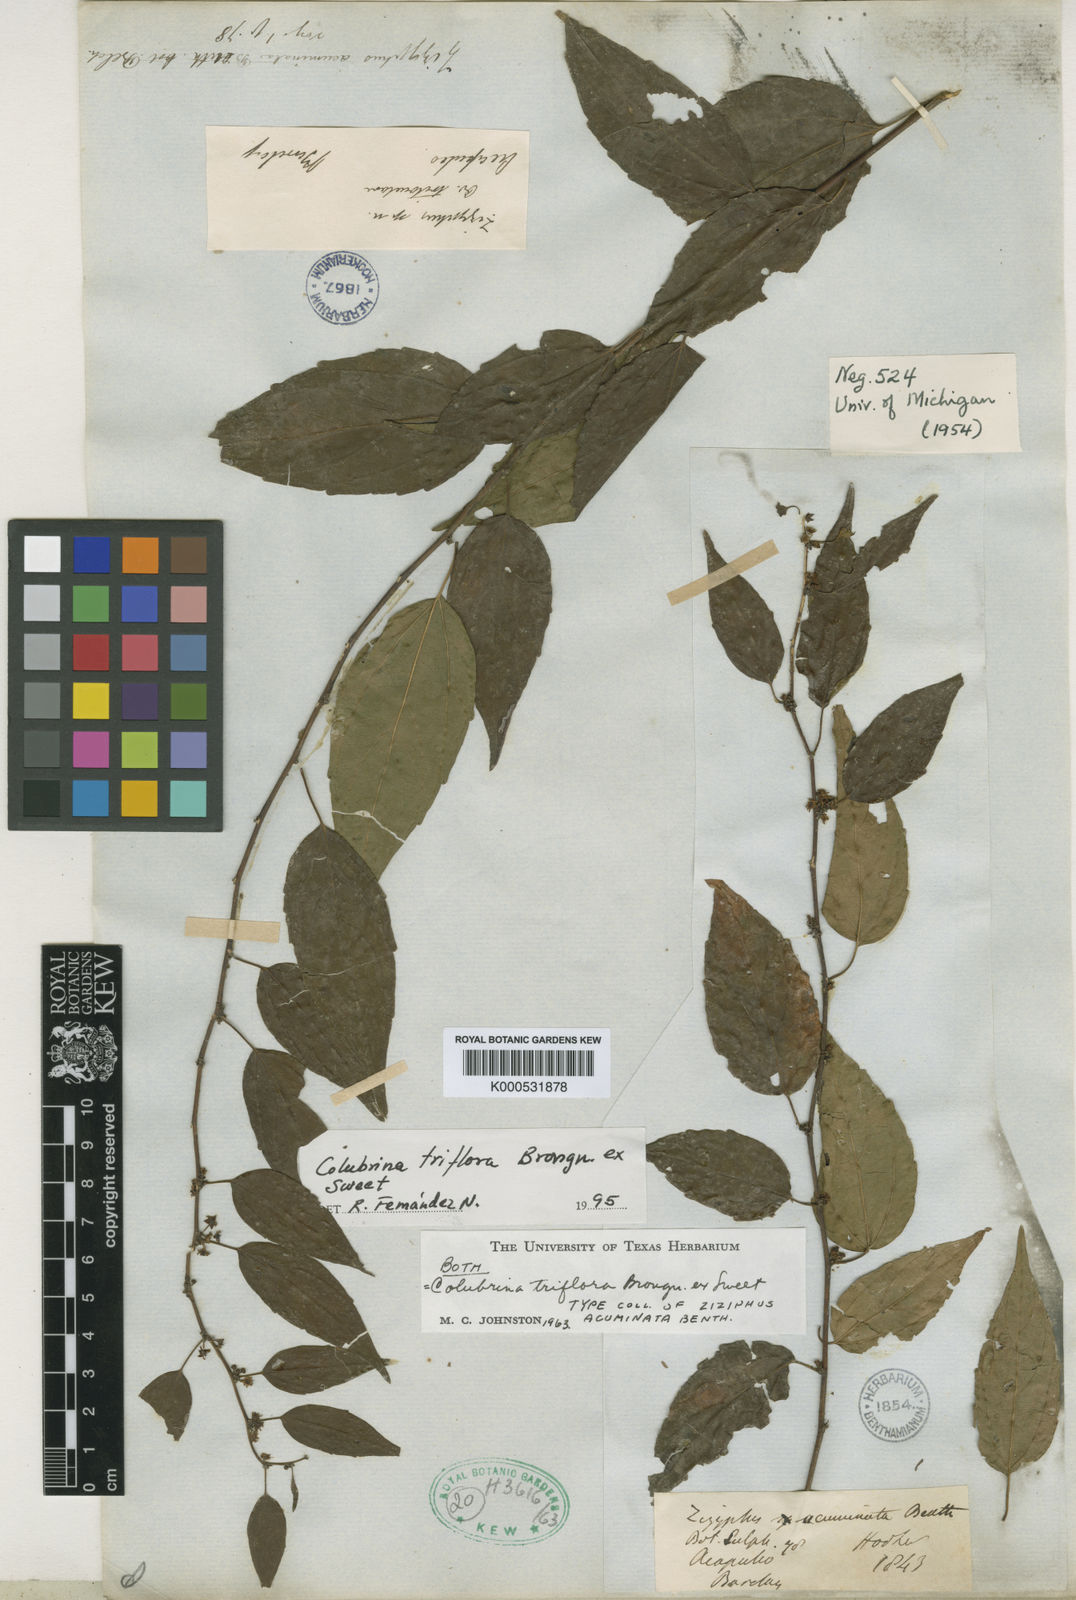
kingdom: Plantae
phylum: Tracheophyta
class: Magnoliopsida
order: Rosales
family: Rhamnaceae
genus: Colubrina
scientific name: Colubrina triflora
